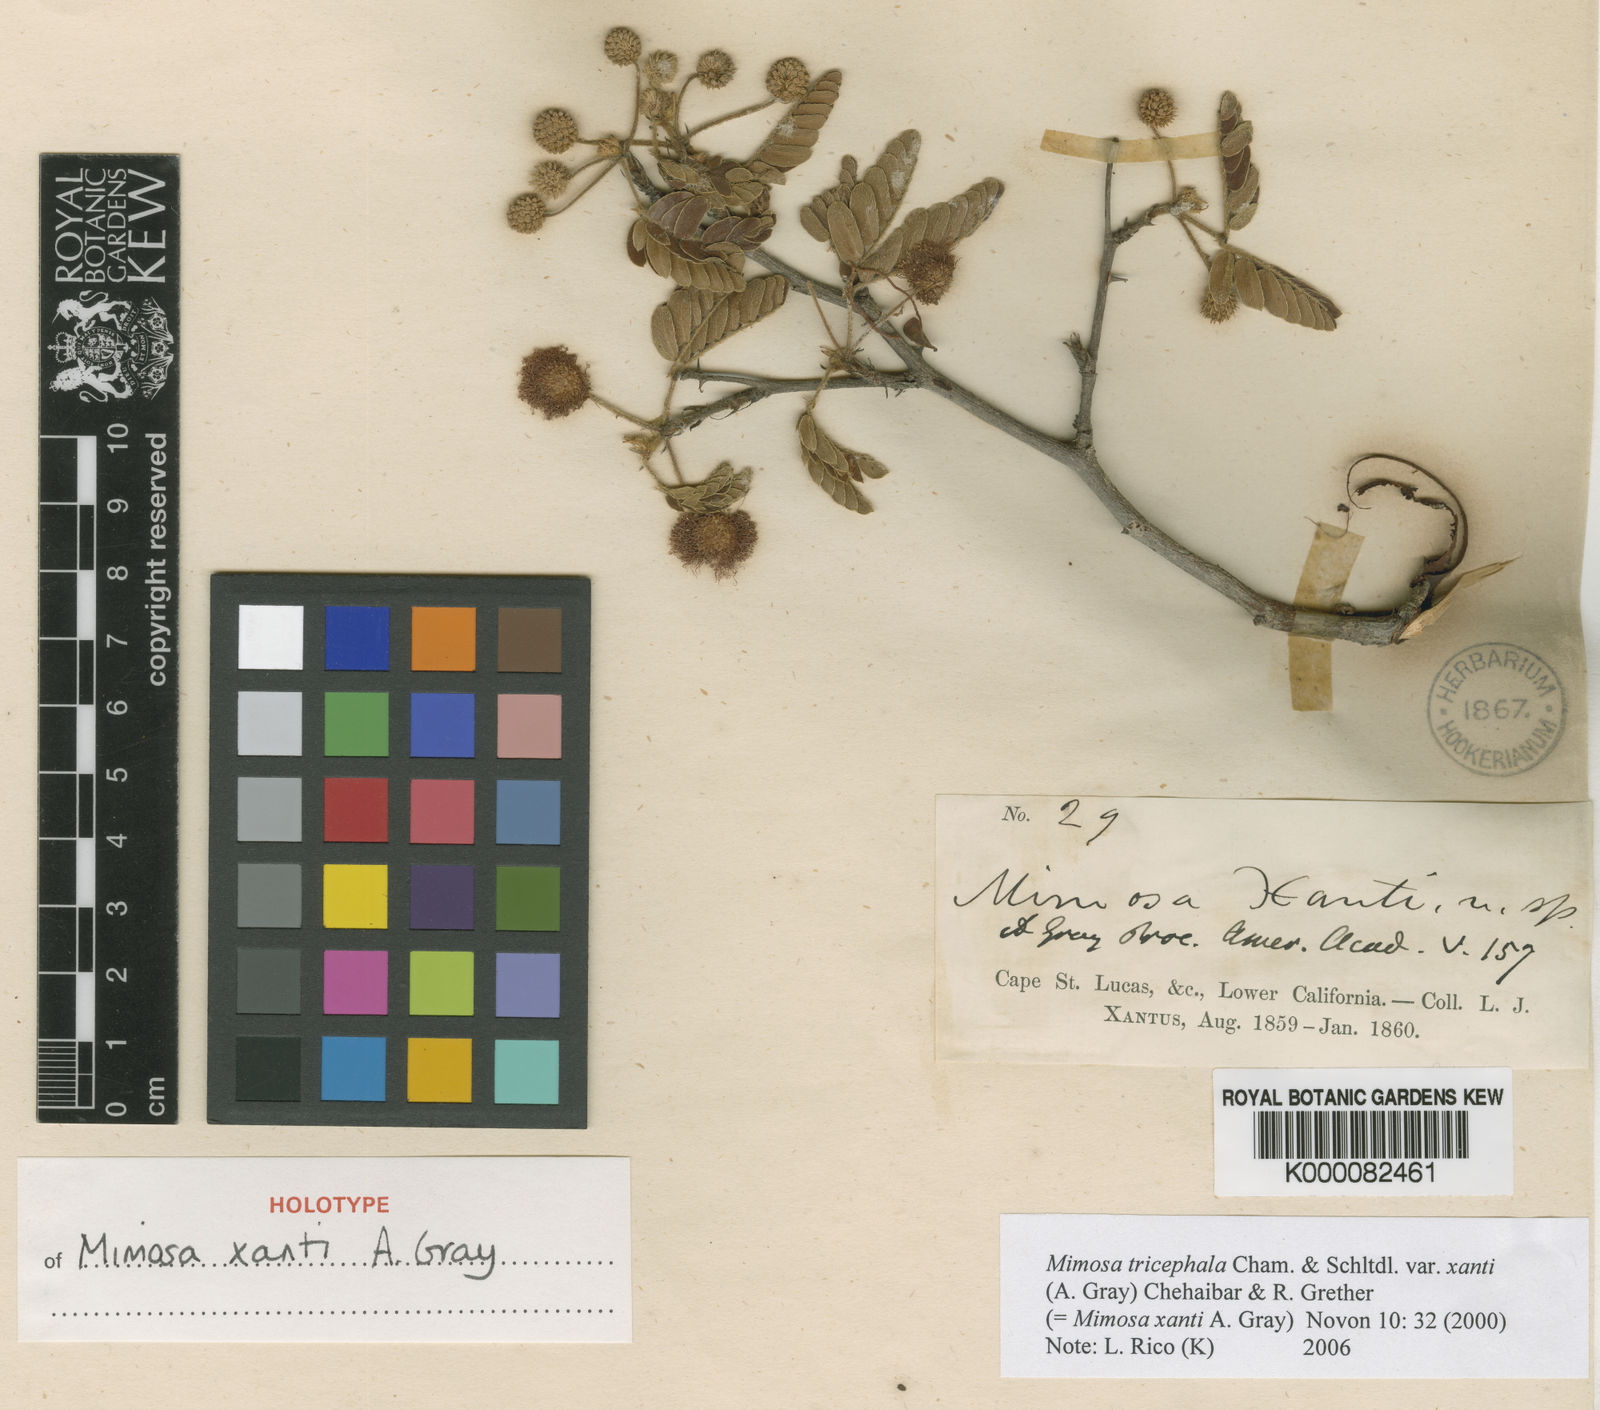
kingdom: Plantae
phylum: Tracheophyta
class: Magnoliopsida
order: Fabales
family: Fabaceae
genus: Mimosa
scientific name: Mimosa tricephala
